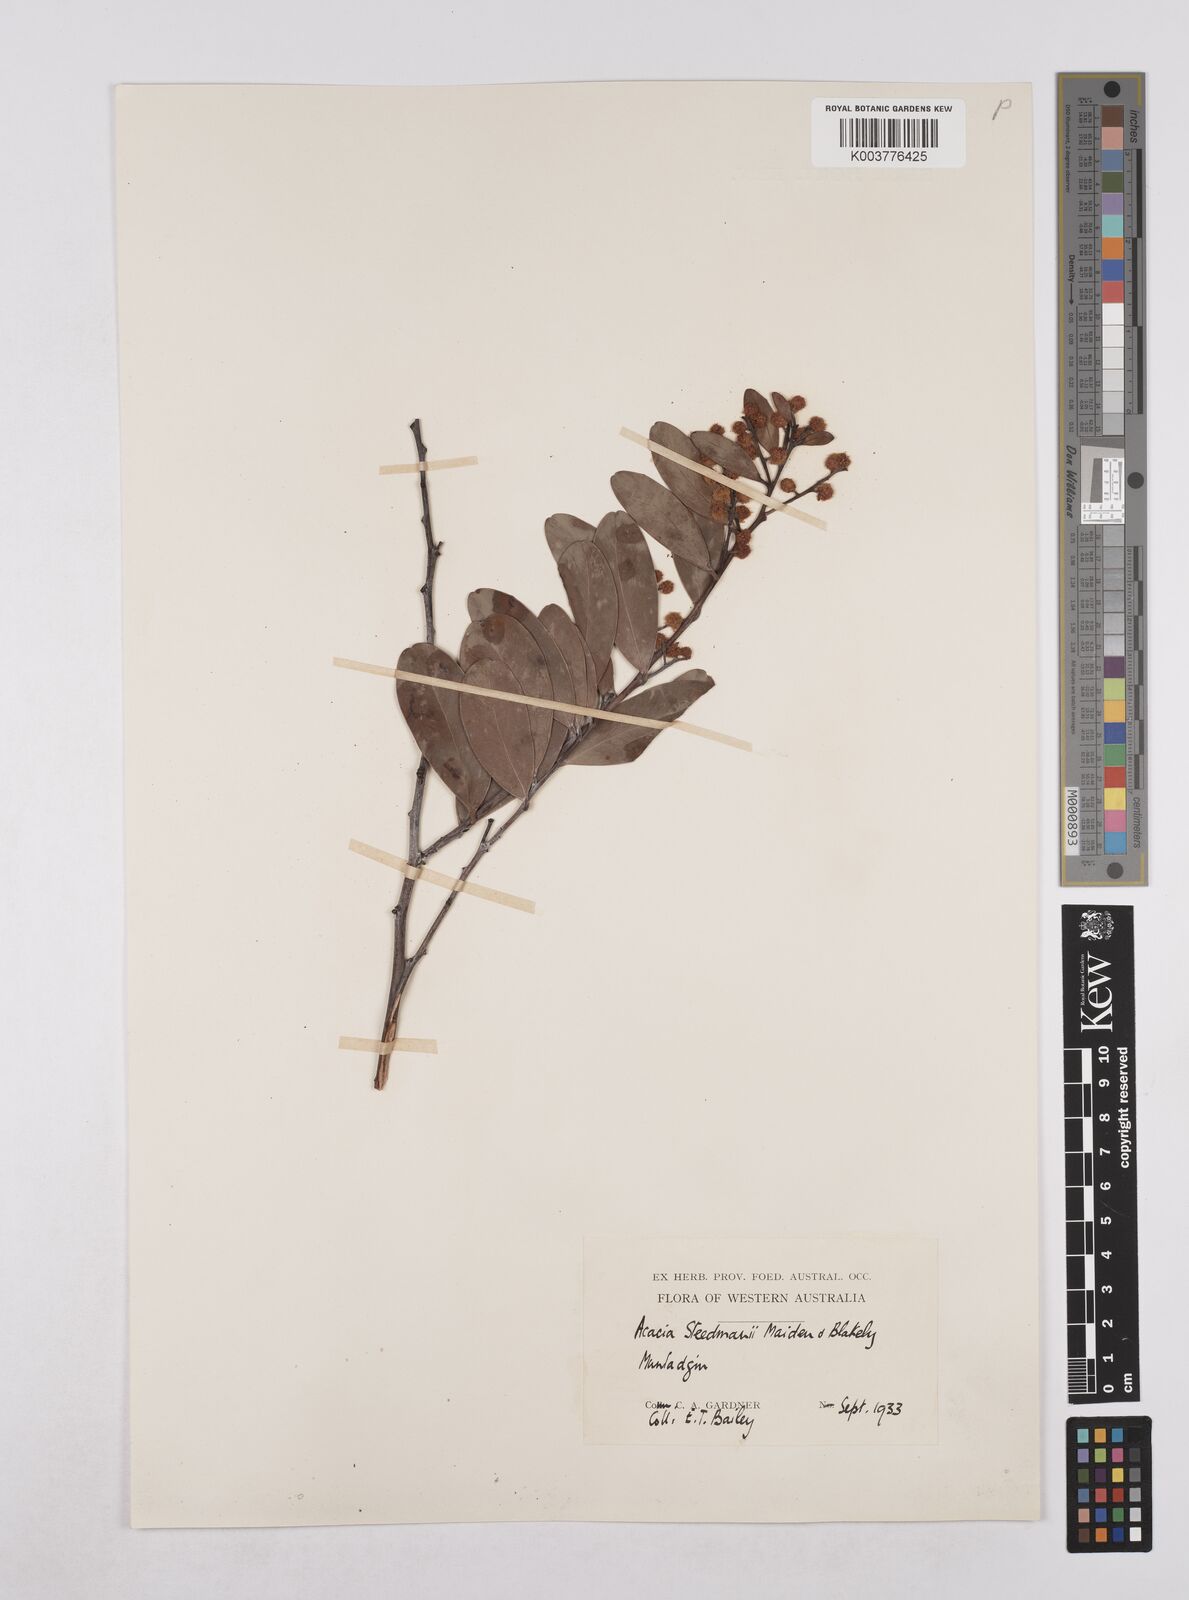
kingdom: Plantae
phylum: Tracheophyta
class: Magnoliopsida
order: Fabales
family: Fabaceae
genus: Acacia
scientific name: Acacia steedmanii
